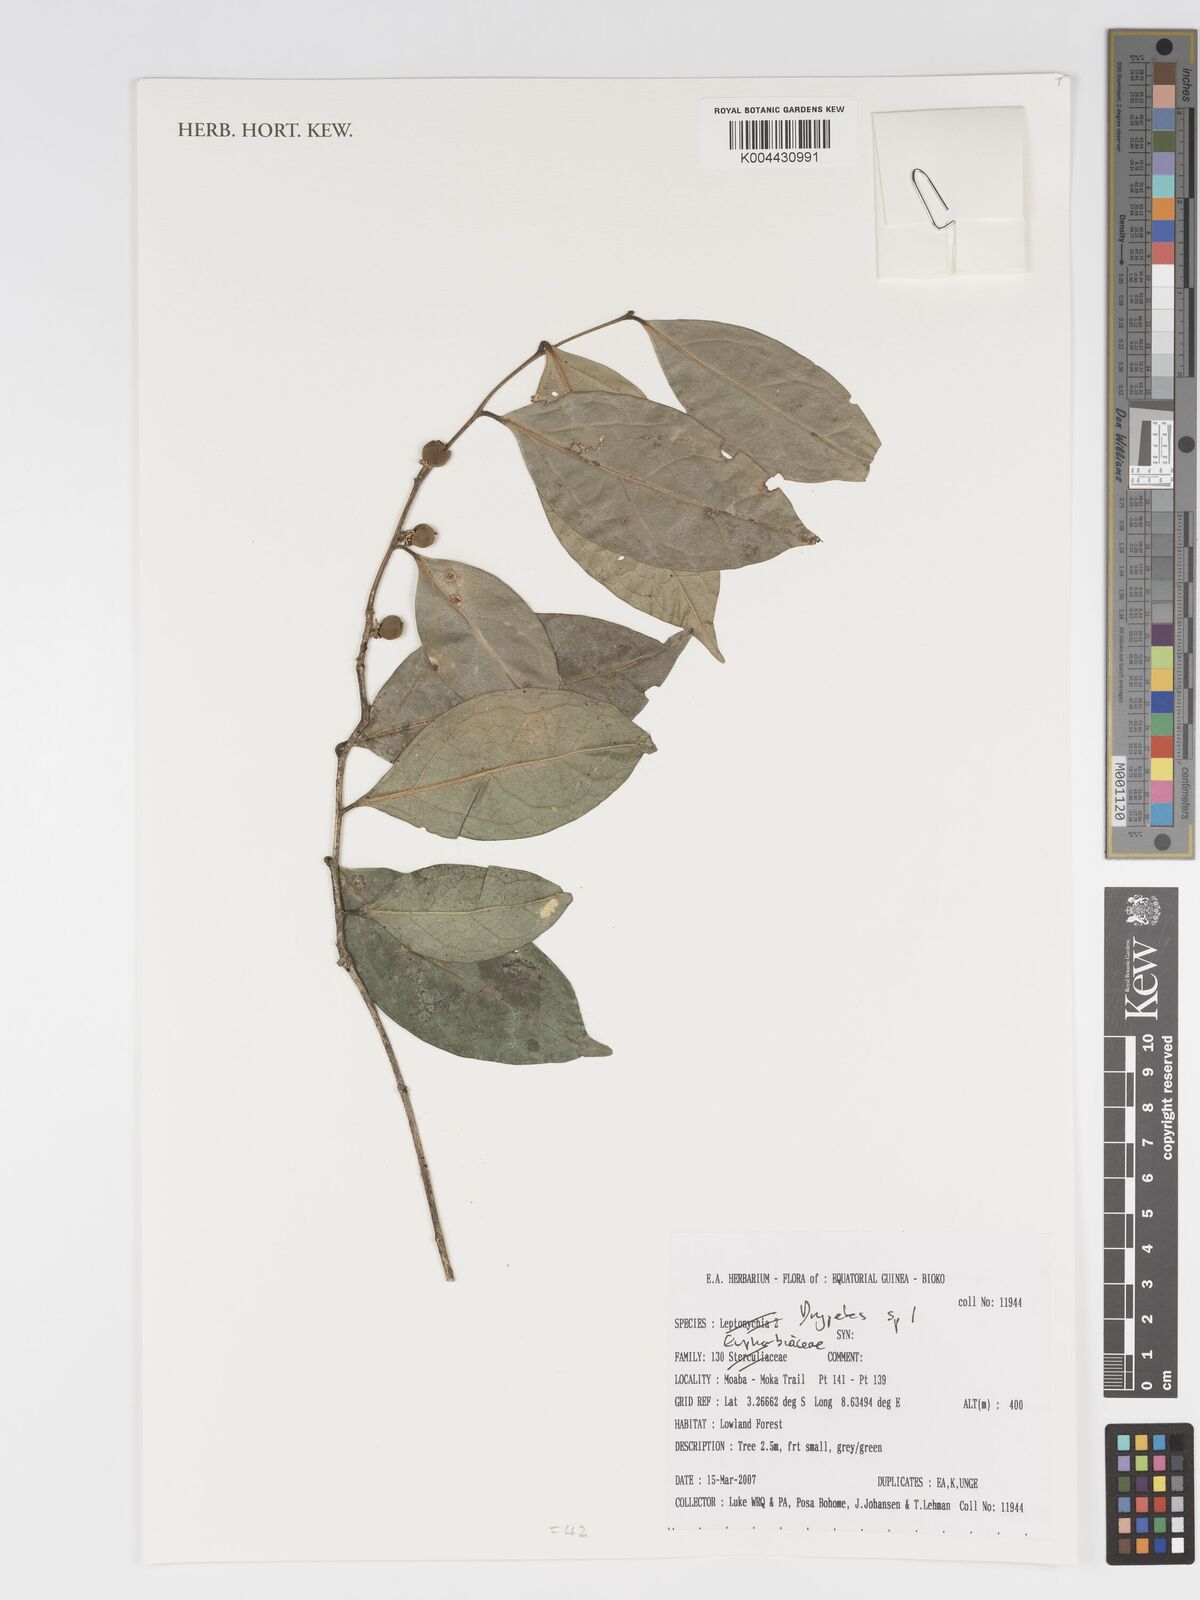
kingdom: Plantae
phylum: Tracheophyta
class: Magnoliopsida
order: Malpighiales
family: Putranjivaceae
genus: Drypetes
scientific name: Drypetes
